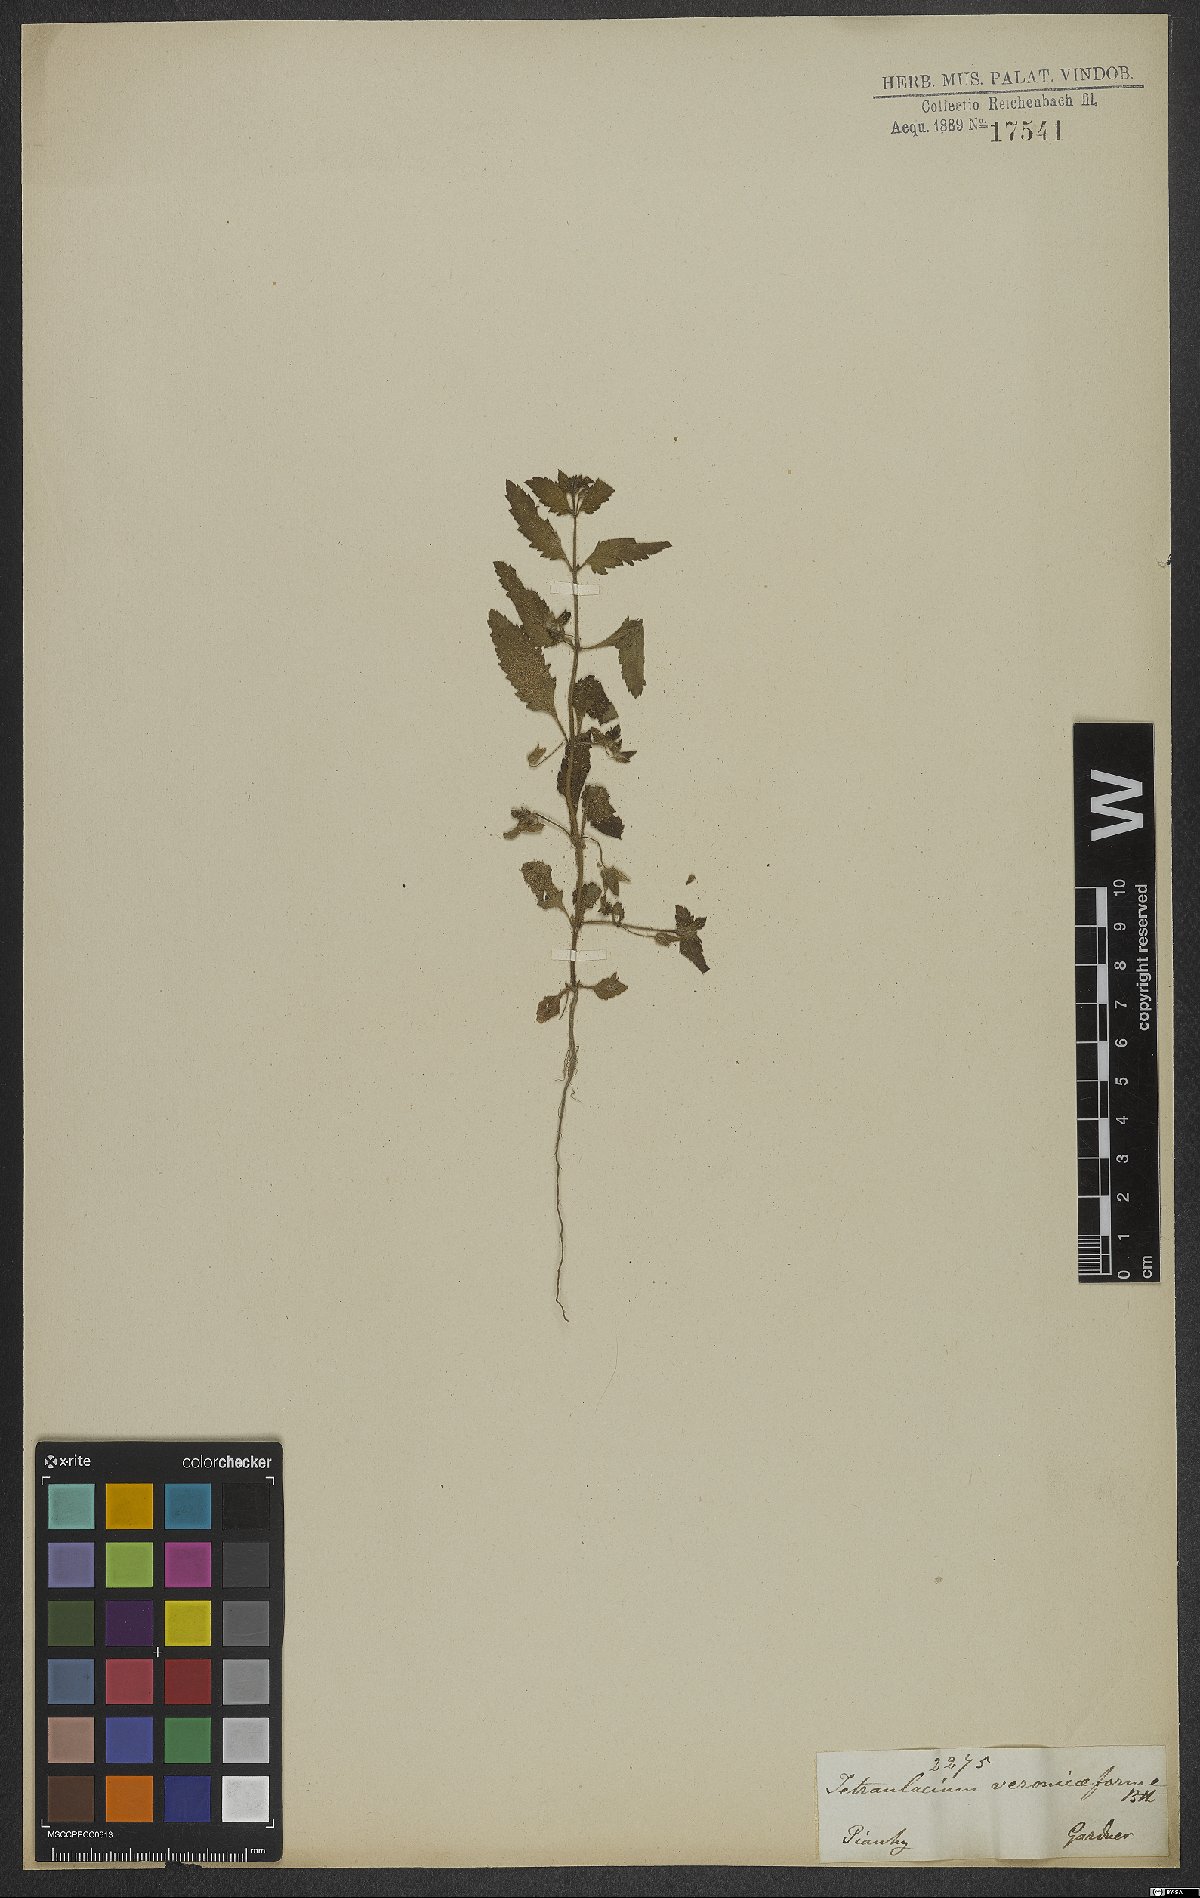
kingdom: Plantae
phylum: Tracheophyta
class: Magnoliopsida
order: Lamiales
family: Plantaginaceae
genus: Tetraulacium
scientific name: Tetraulacium veroniciforme
